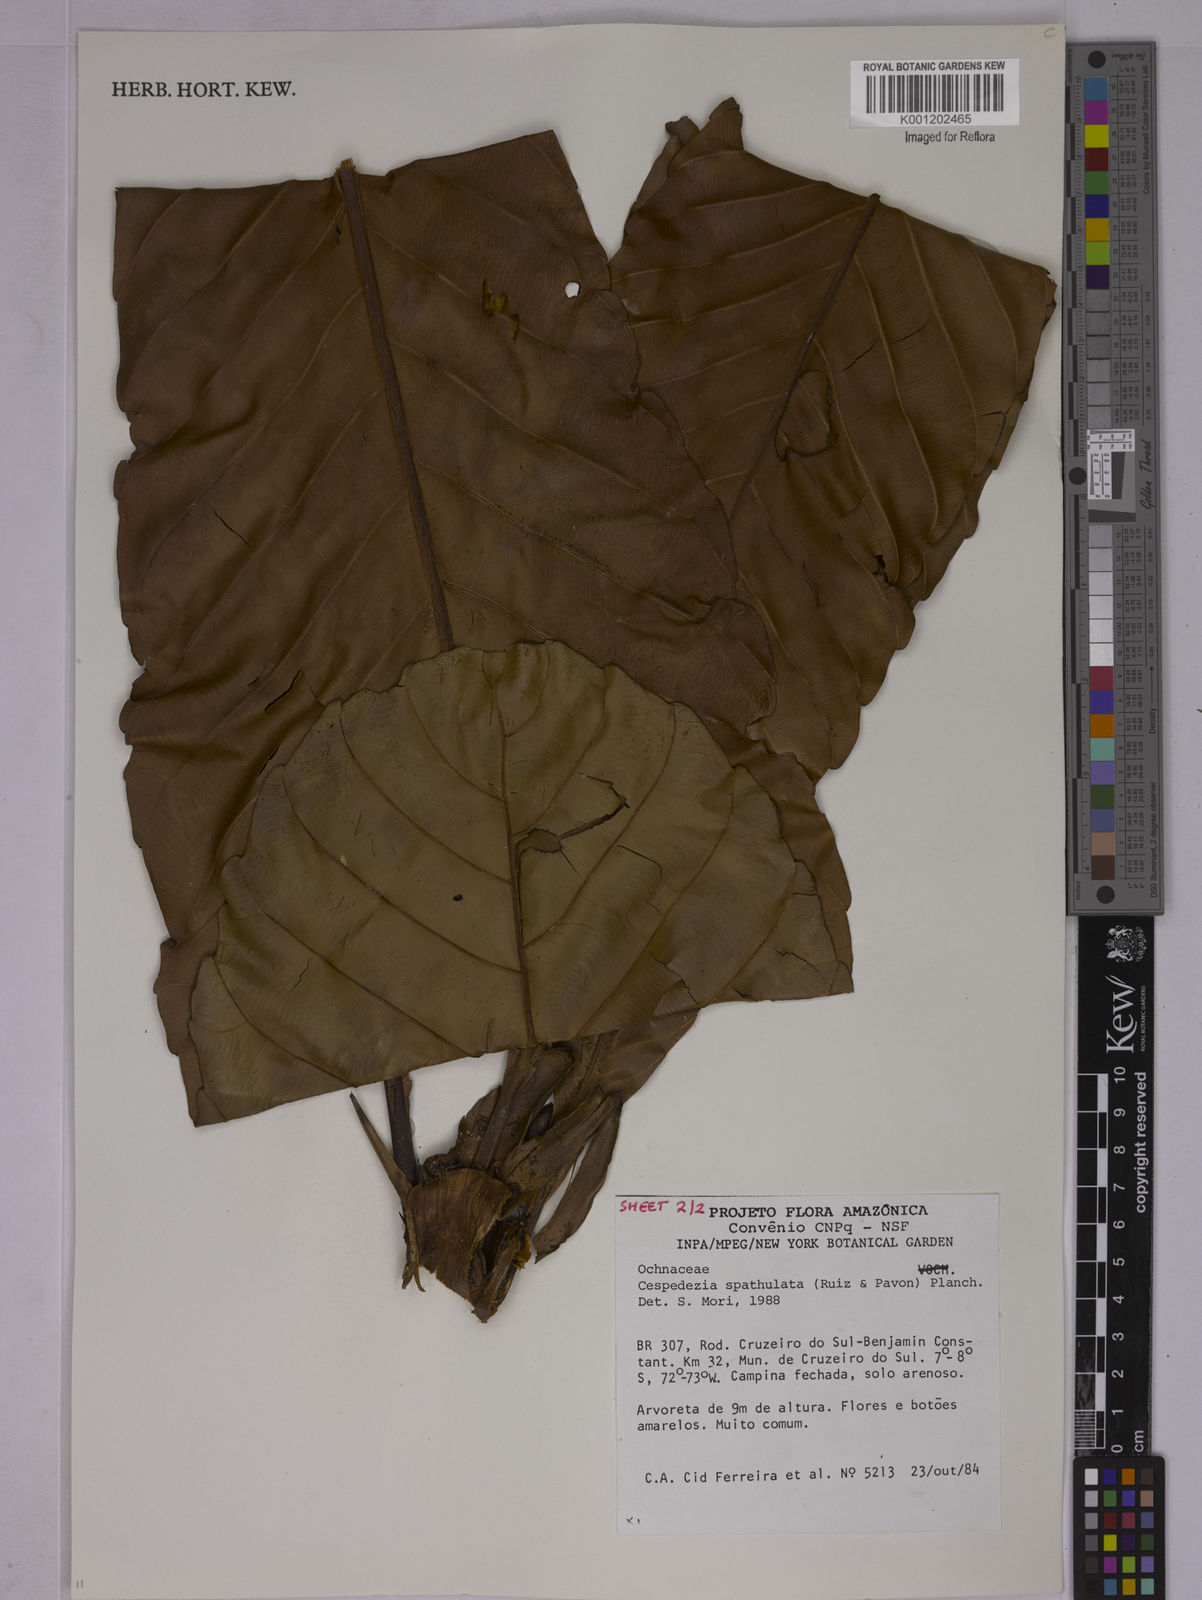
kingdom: Plantae
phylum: Tracheophyta
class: Magnoliopsida
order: Malpighiales
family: Ochnaceae
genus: Cespedesia
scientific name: Cespedesia spathulata
